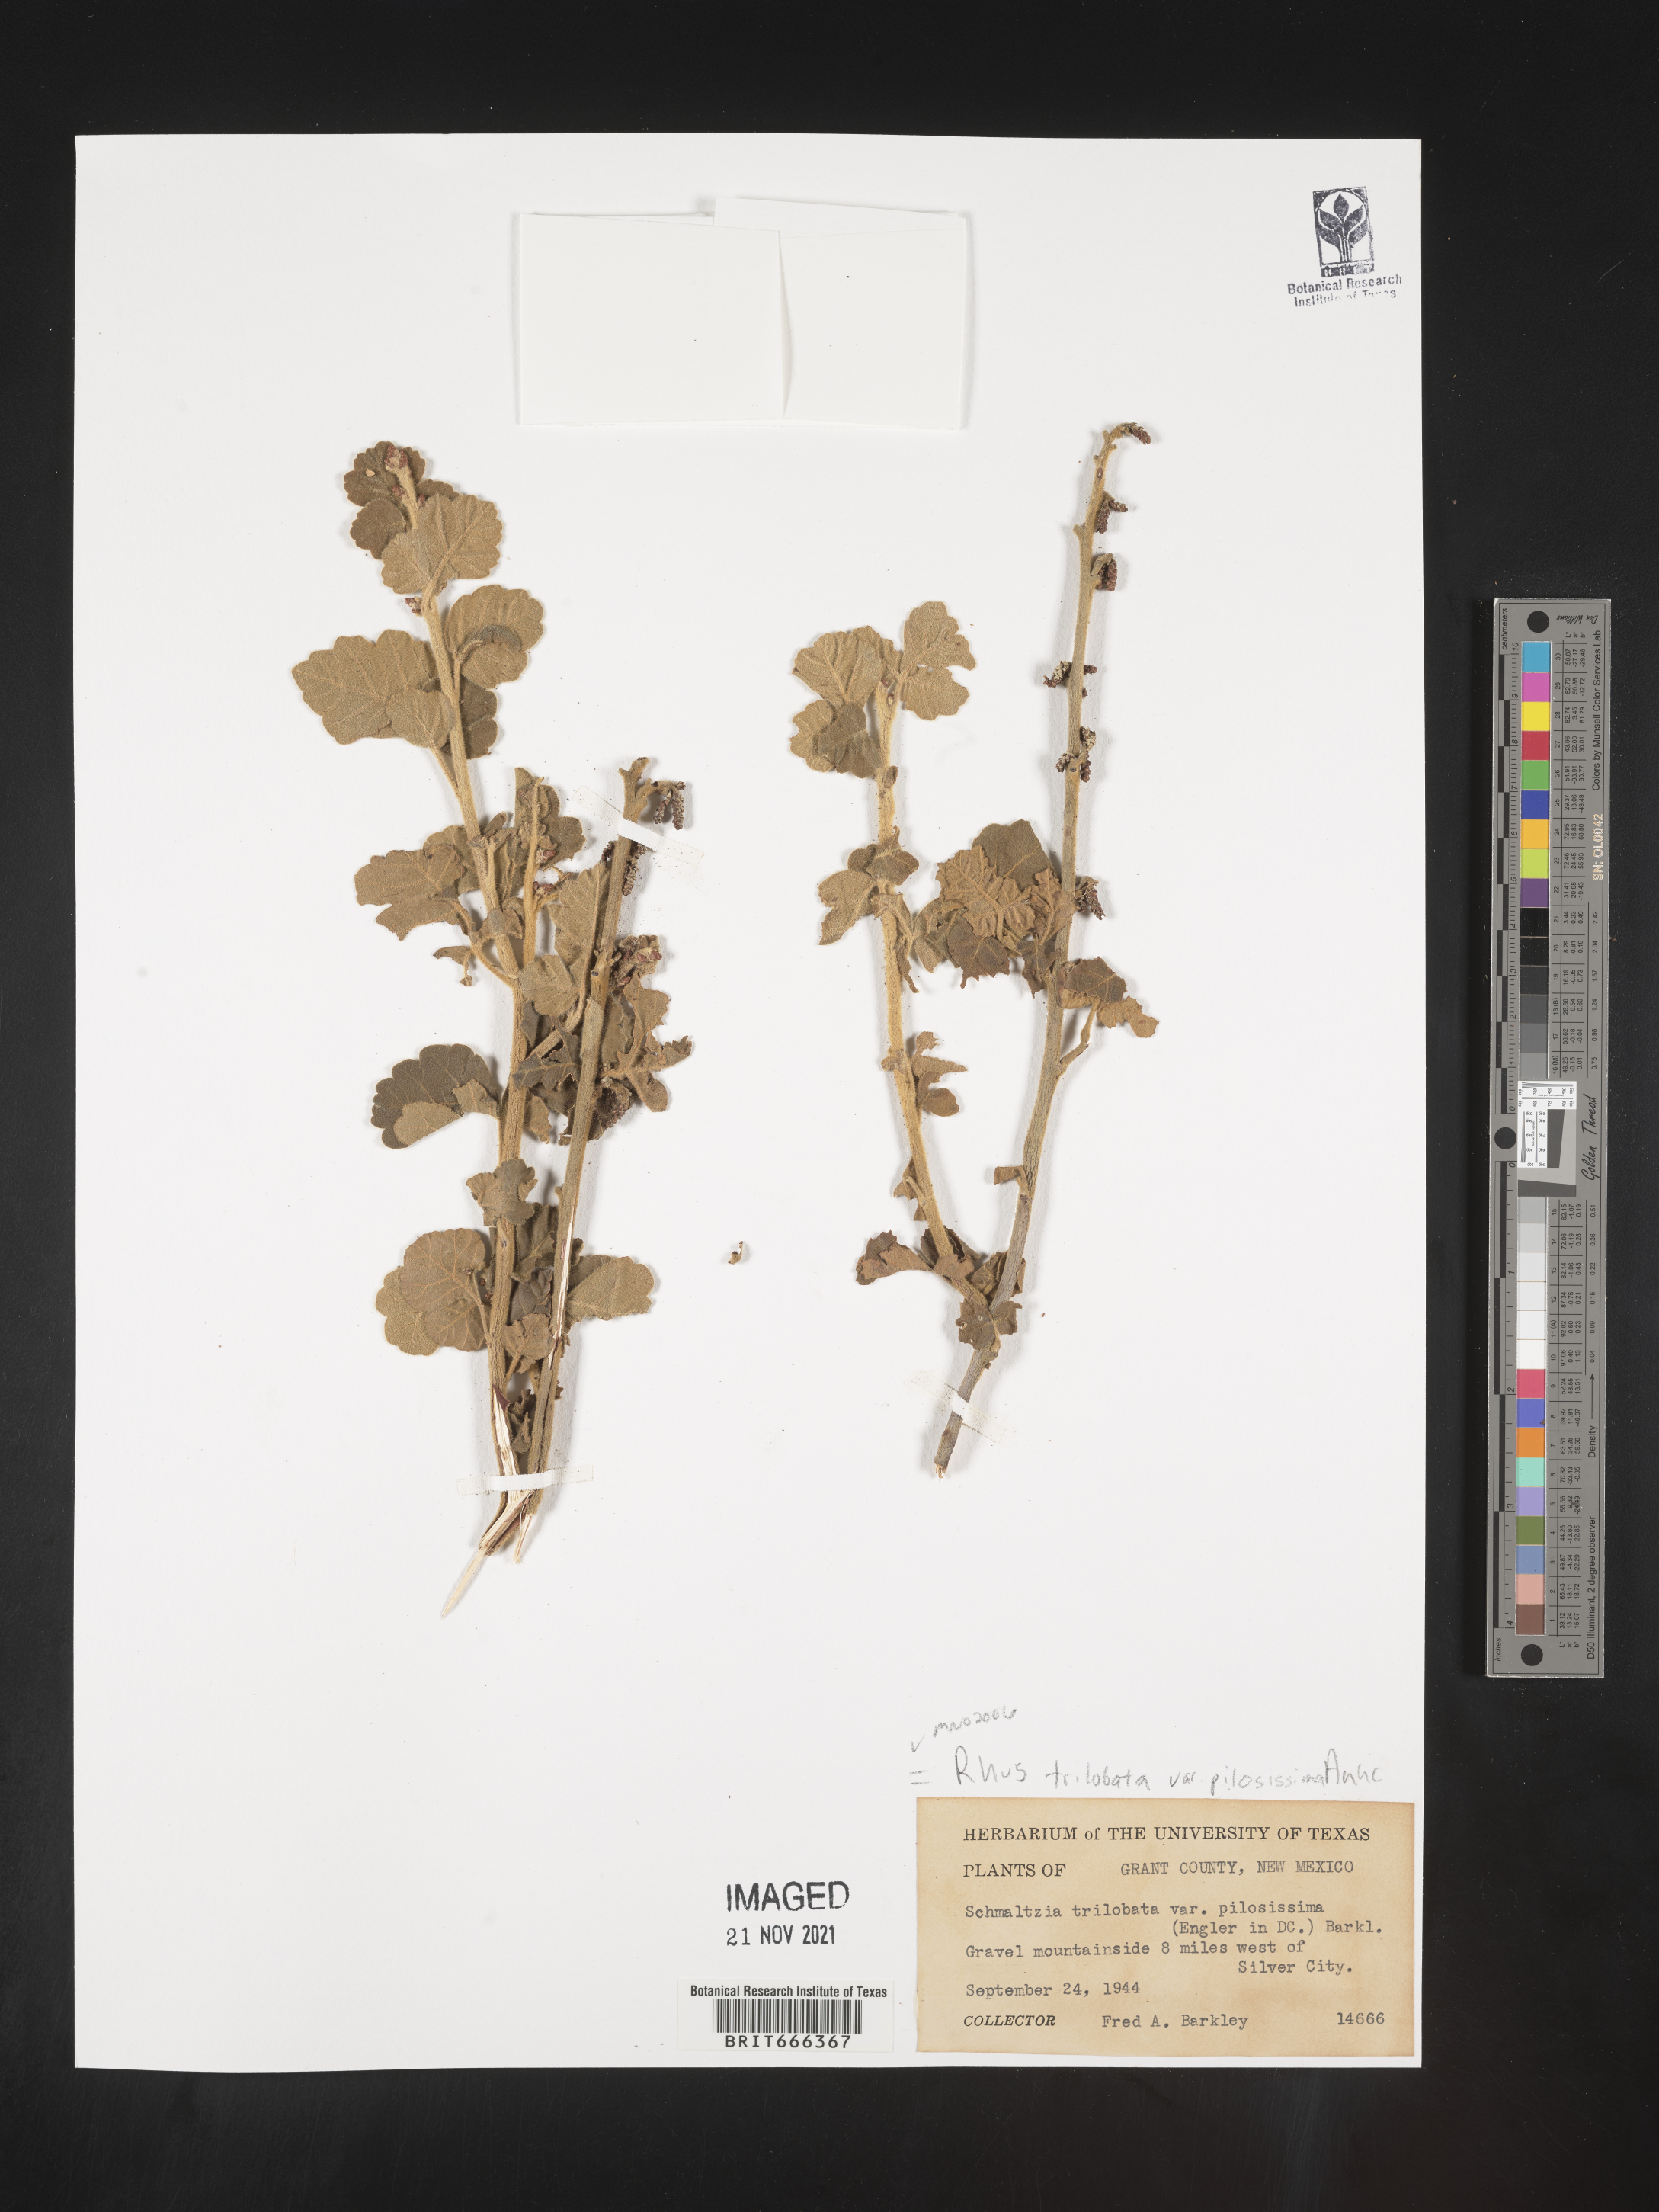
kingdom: Plantae
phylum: Tracheophyta
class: Magnoliopsida
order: Sapindales
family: Anacardiaceae
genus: Rhus
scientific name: Rhus trilobata
